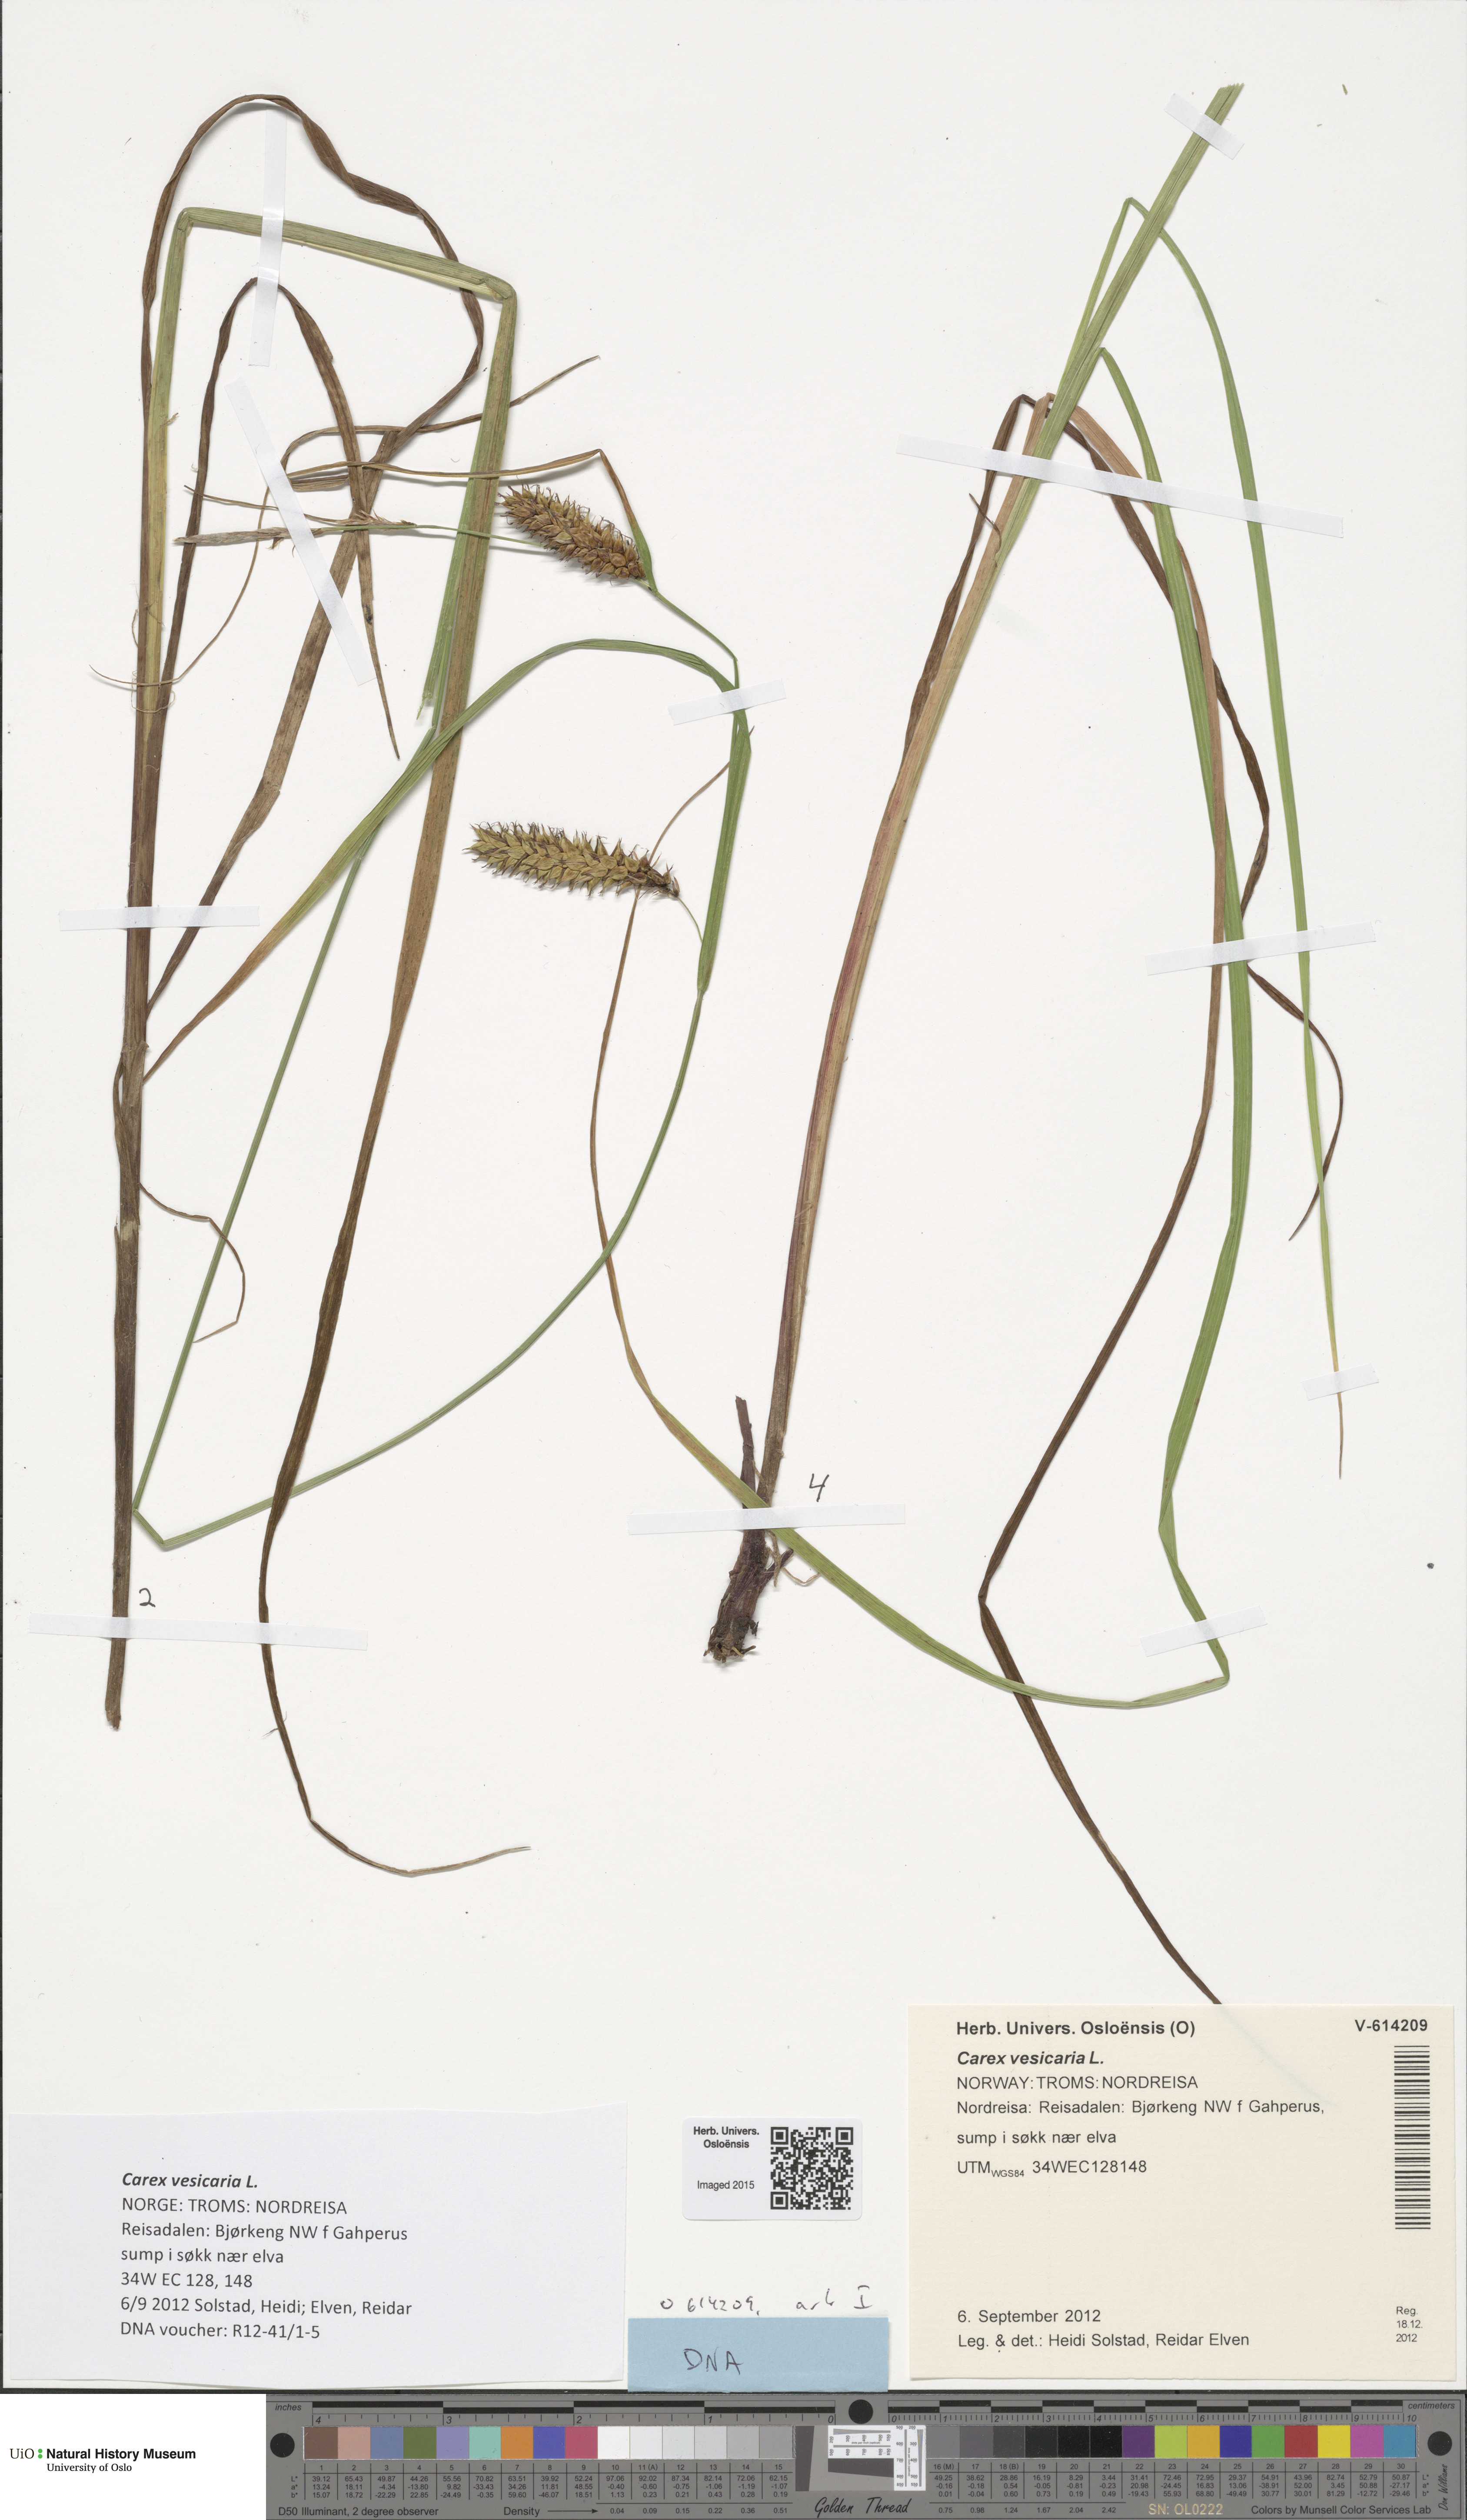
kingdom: Plantae
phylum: Tracheophyta
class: Liliopsida
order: Poales
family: Cyperaceae
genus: Carex
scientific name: Carex vesicaria
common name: Bladder-sedge
